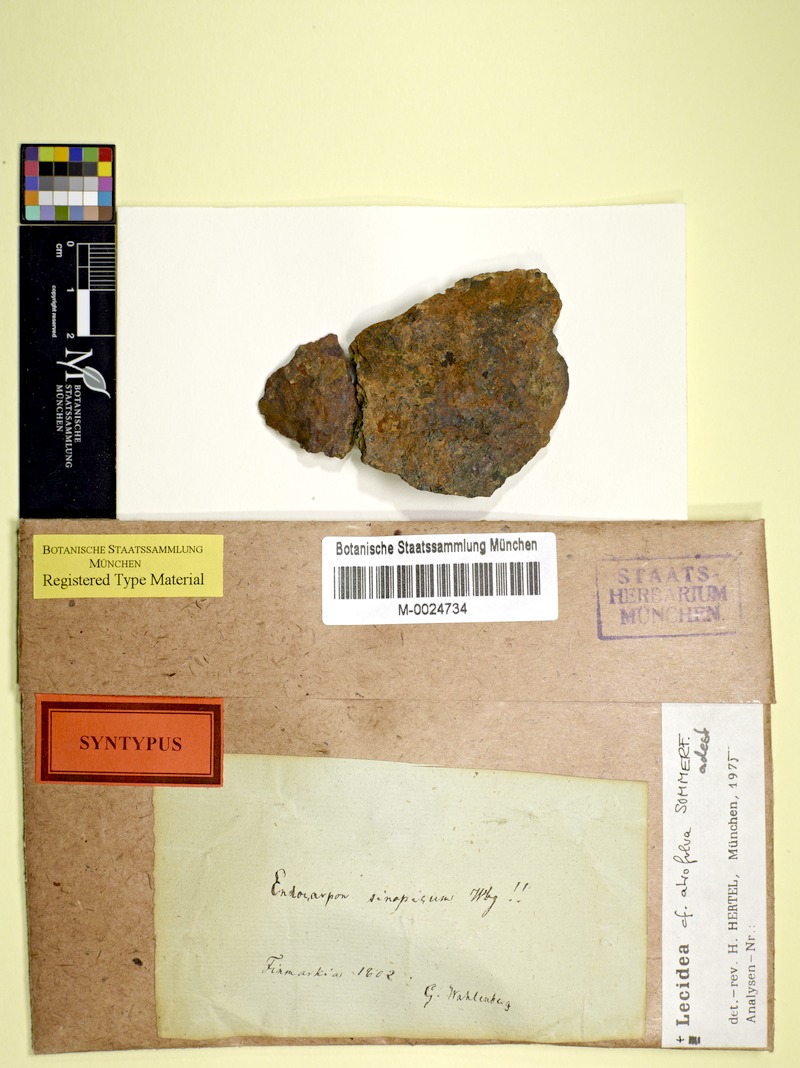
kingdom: Fungi
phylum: Ascomycota
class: Lecanoromycetes
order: Acarosporales
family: Acarosporaceae
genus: Acarospora
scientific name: Acarospora sinopica
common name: Sinoper lichen
